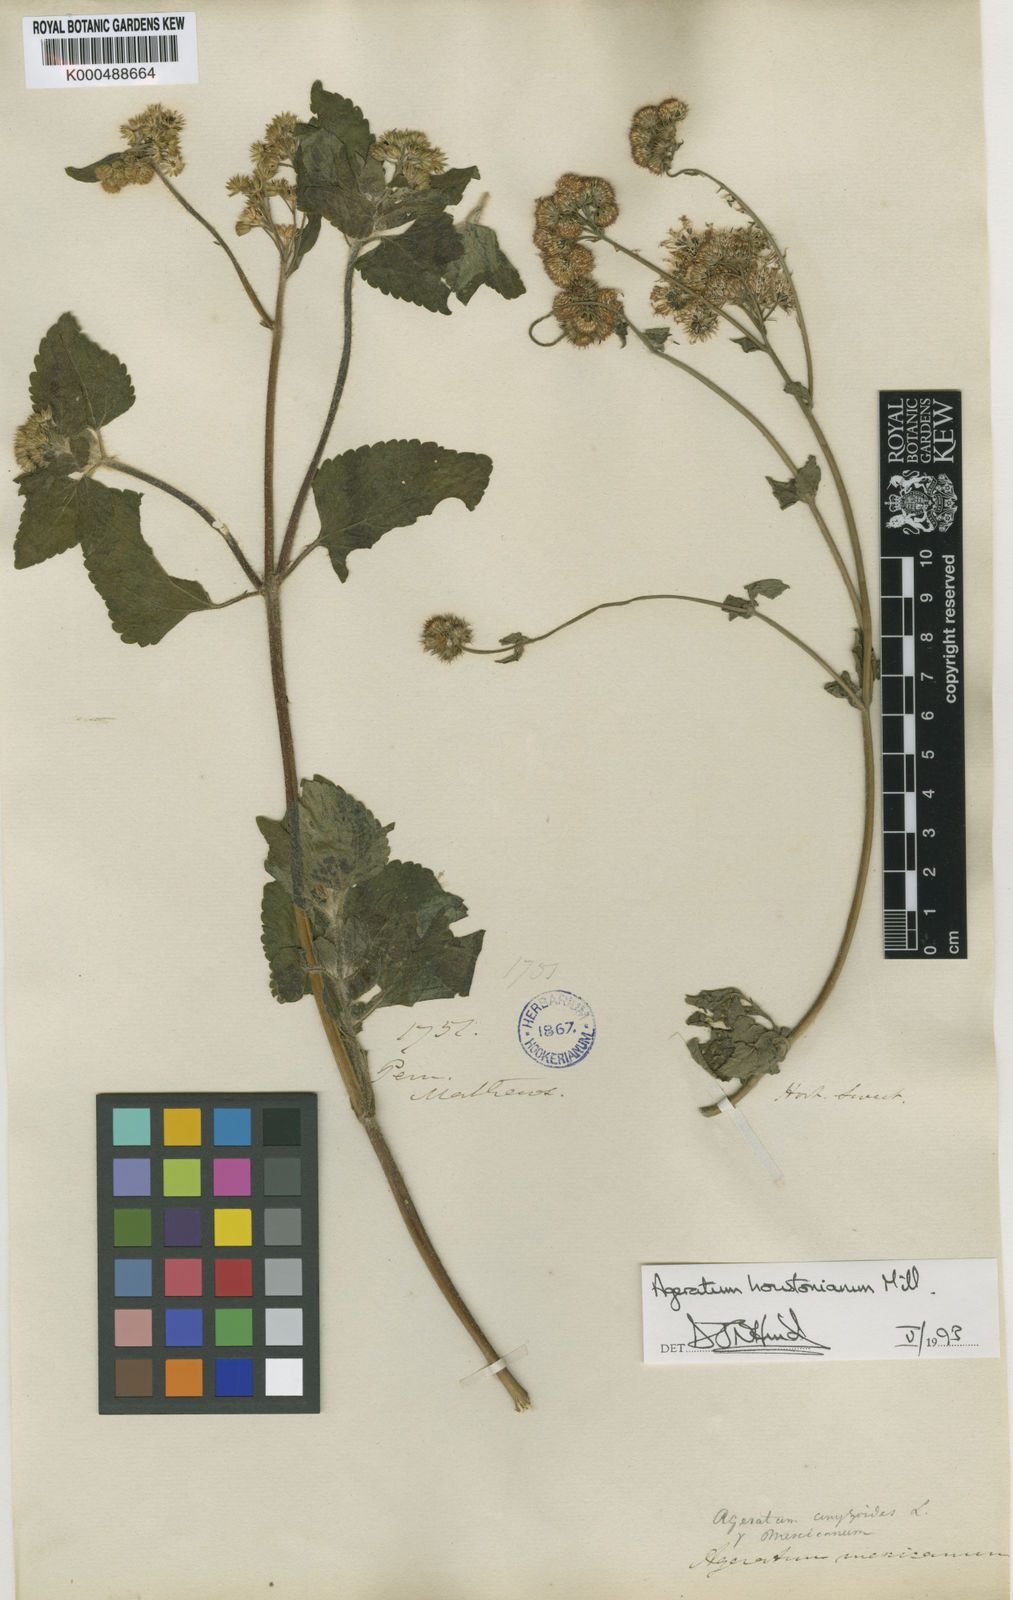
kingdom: Plantae
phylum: Tracheophyta
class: Magnoliopsida
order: Asterales
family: Asteraceae
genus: Ageratum
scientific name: Ageratum houstonianum
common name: Bluemink
